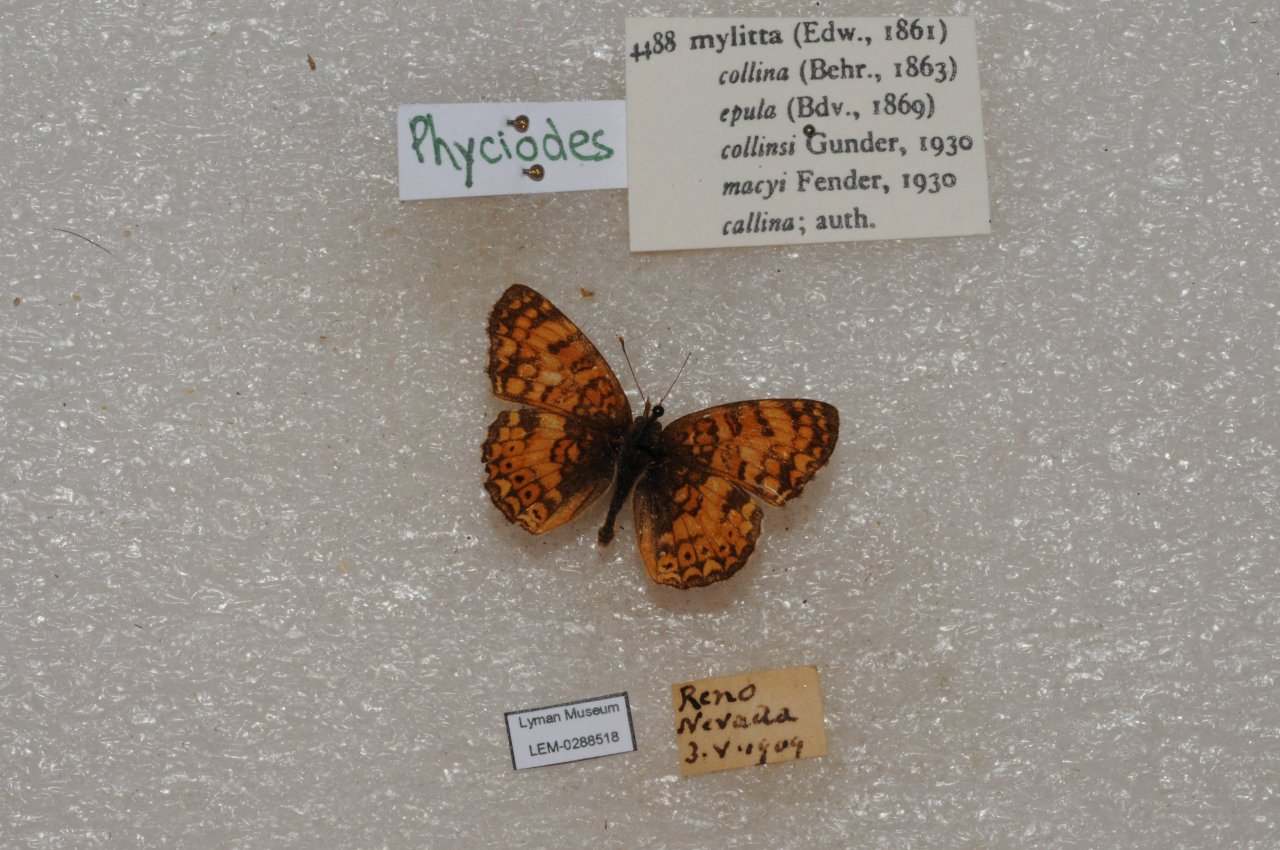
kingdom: Animalia
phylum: Arthropoda
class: Insecta
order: Lepidoptera
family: Nymphalidae
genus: Eresia
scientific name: Eresia aveyrona
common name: Mylitta Crescent
